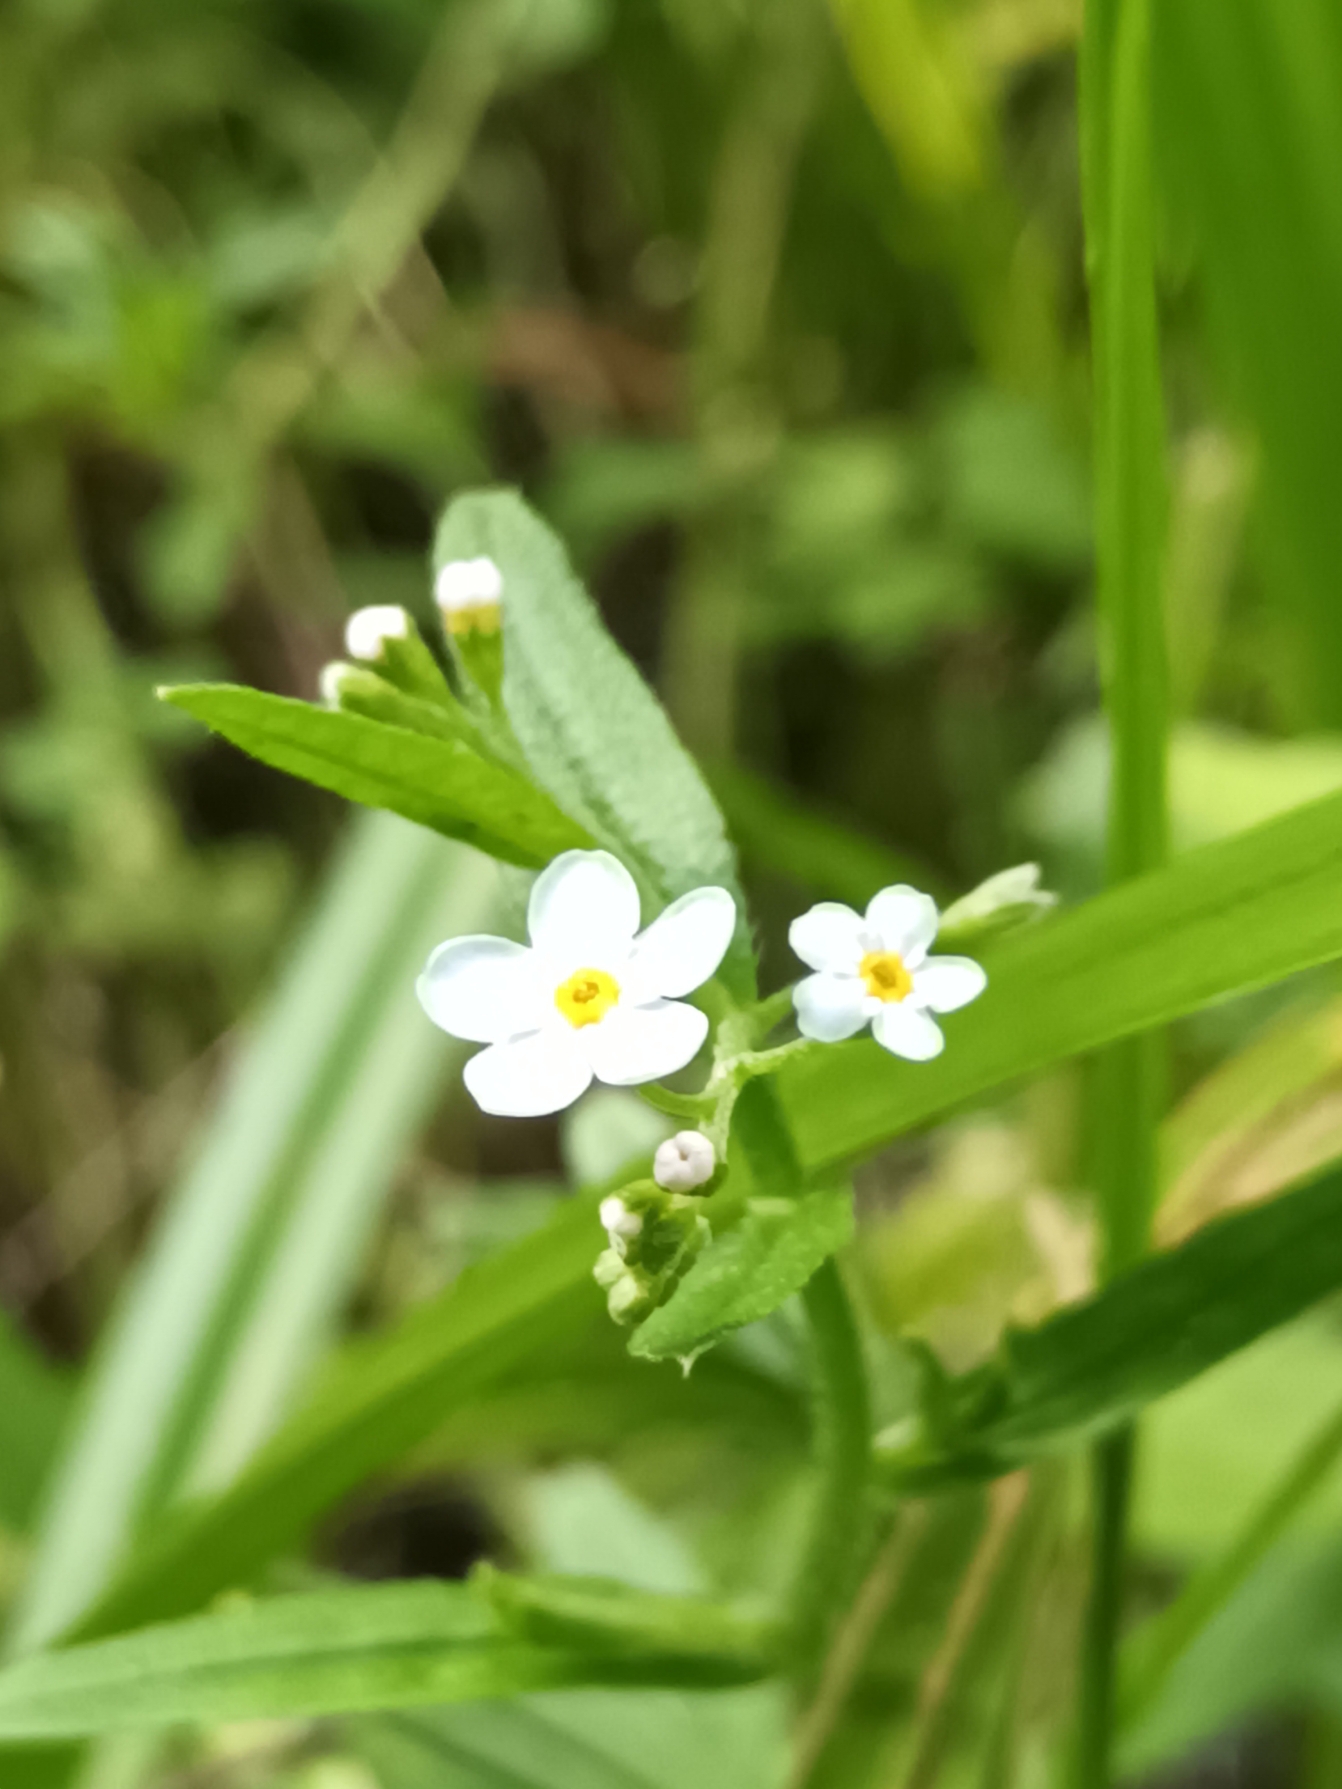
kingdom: Plantae
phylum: Tracheophyta
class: Magnoliopsida
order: Boraginales
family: Boraginaceae
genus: Myosotis
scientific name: Myosotis scorpioides
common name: Eng-forglemmigej
